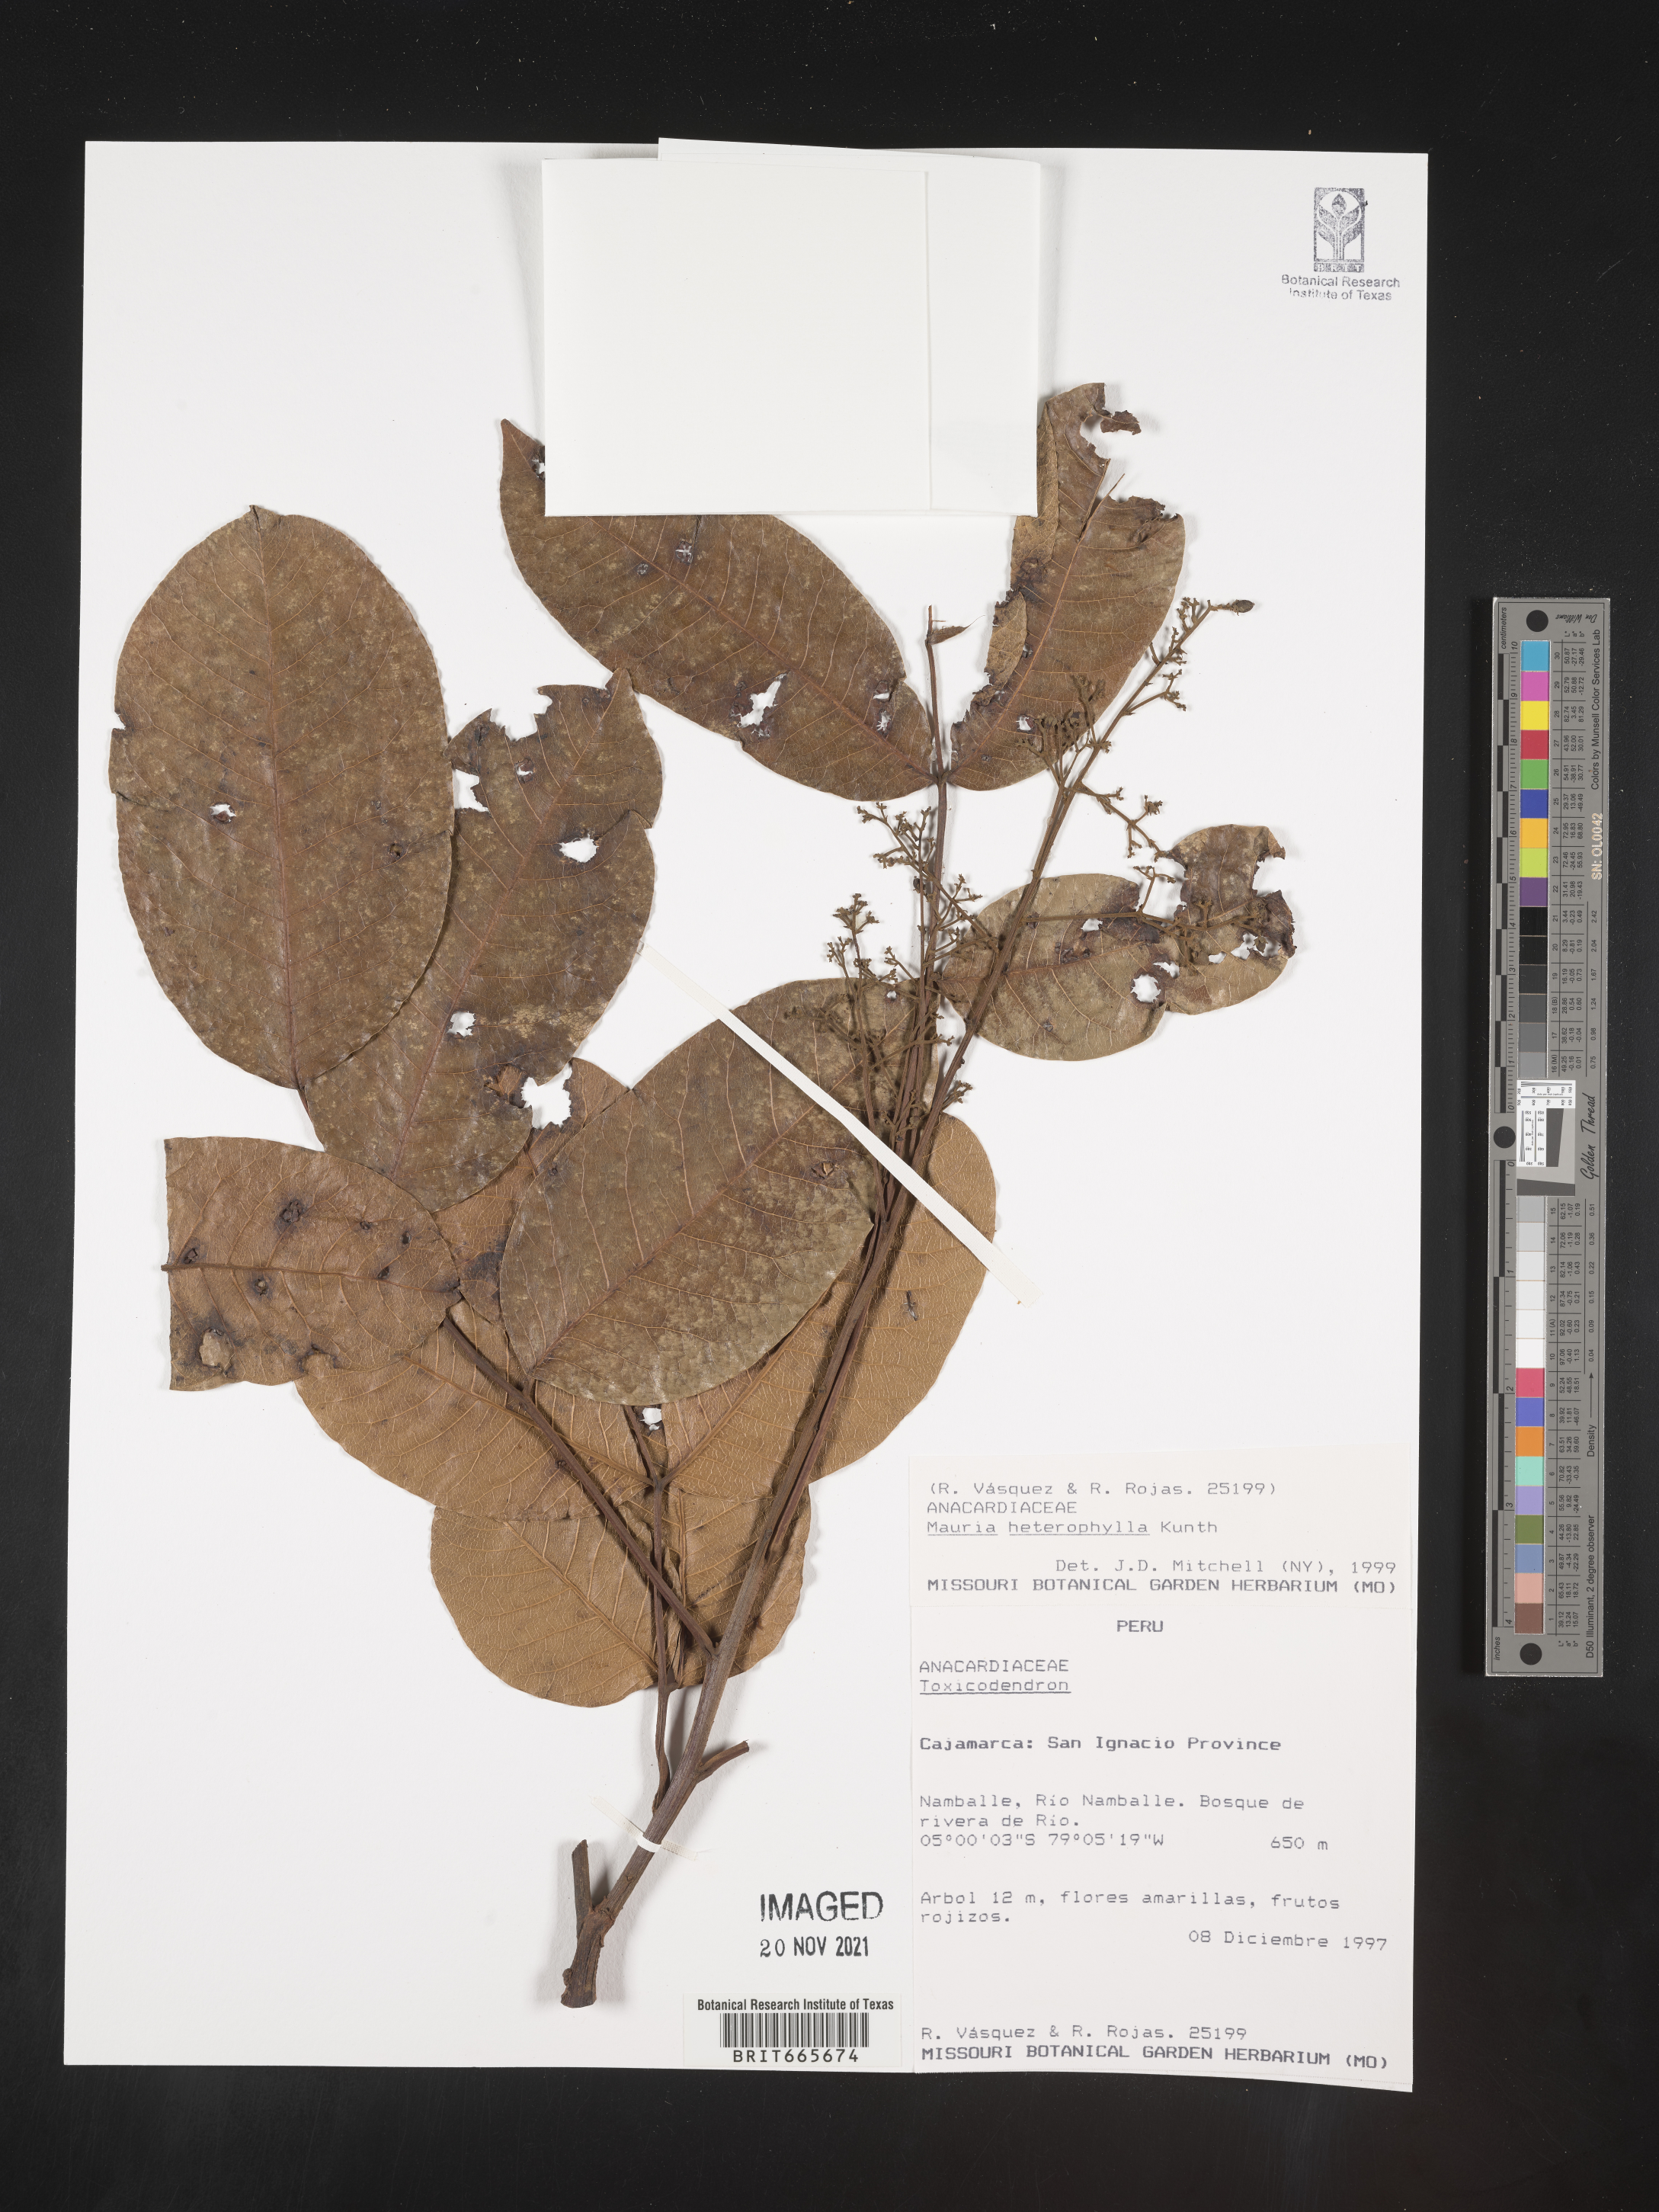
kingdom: Plantae
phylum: Tracheophyta
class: Magnoliopsida
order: Sapindales
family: Anacardiaceae
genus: Mauria
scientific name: Mauria
